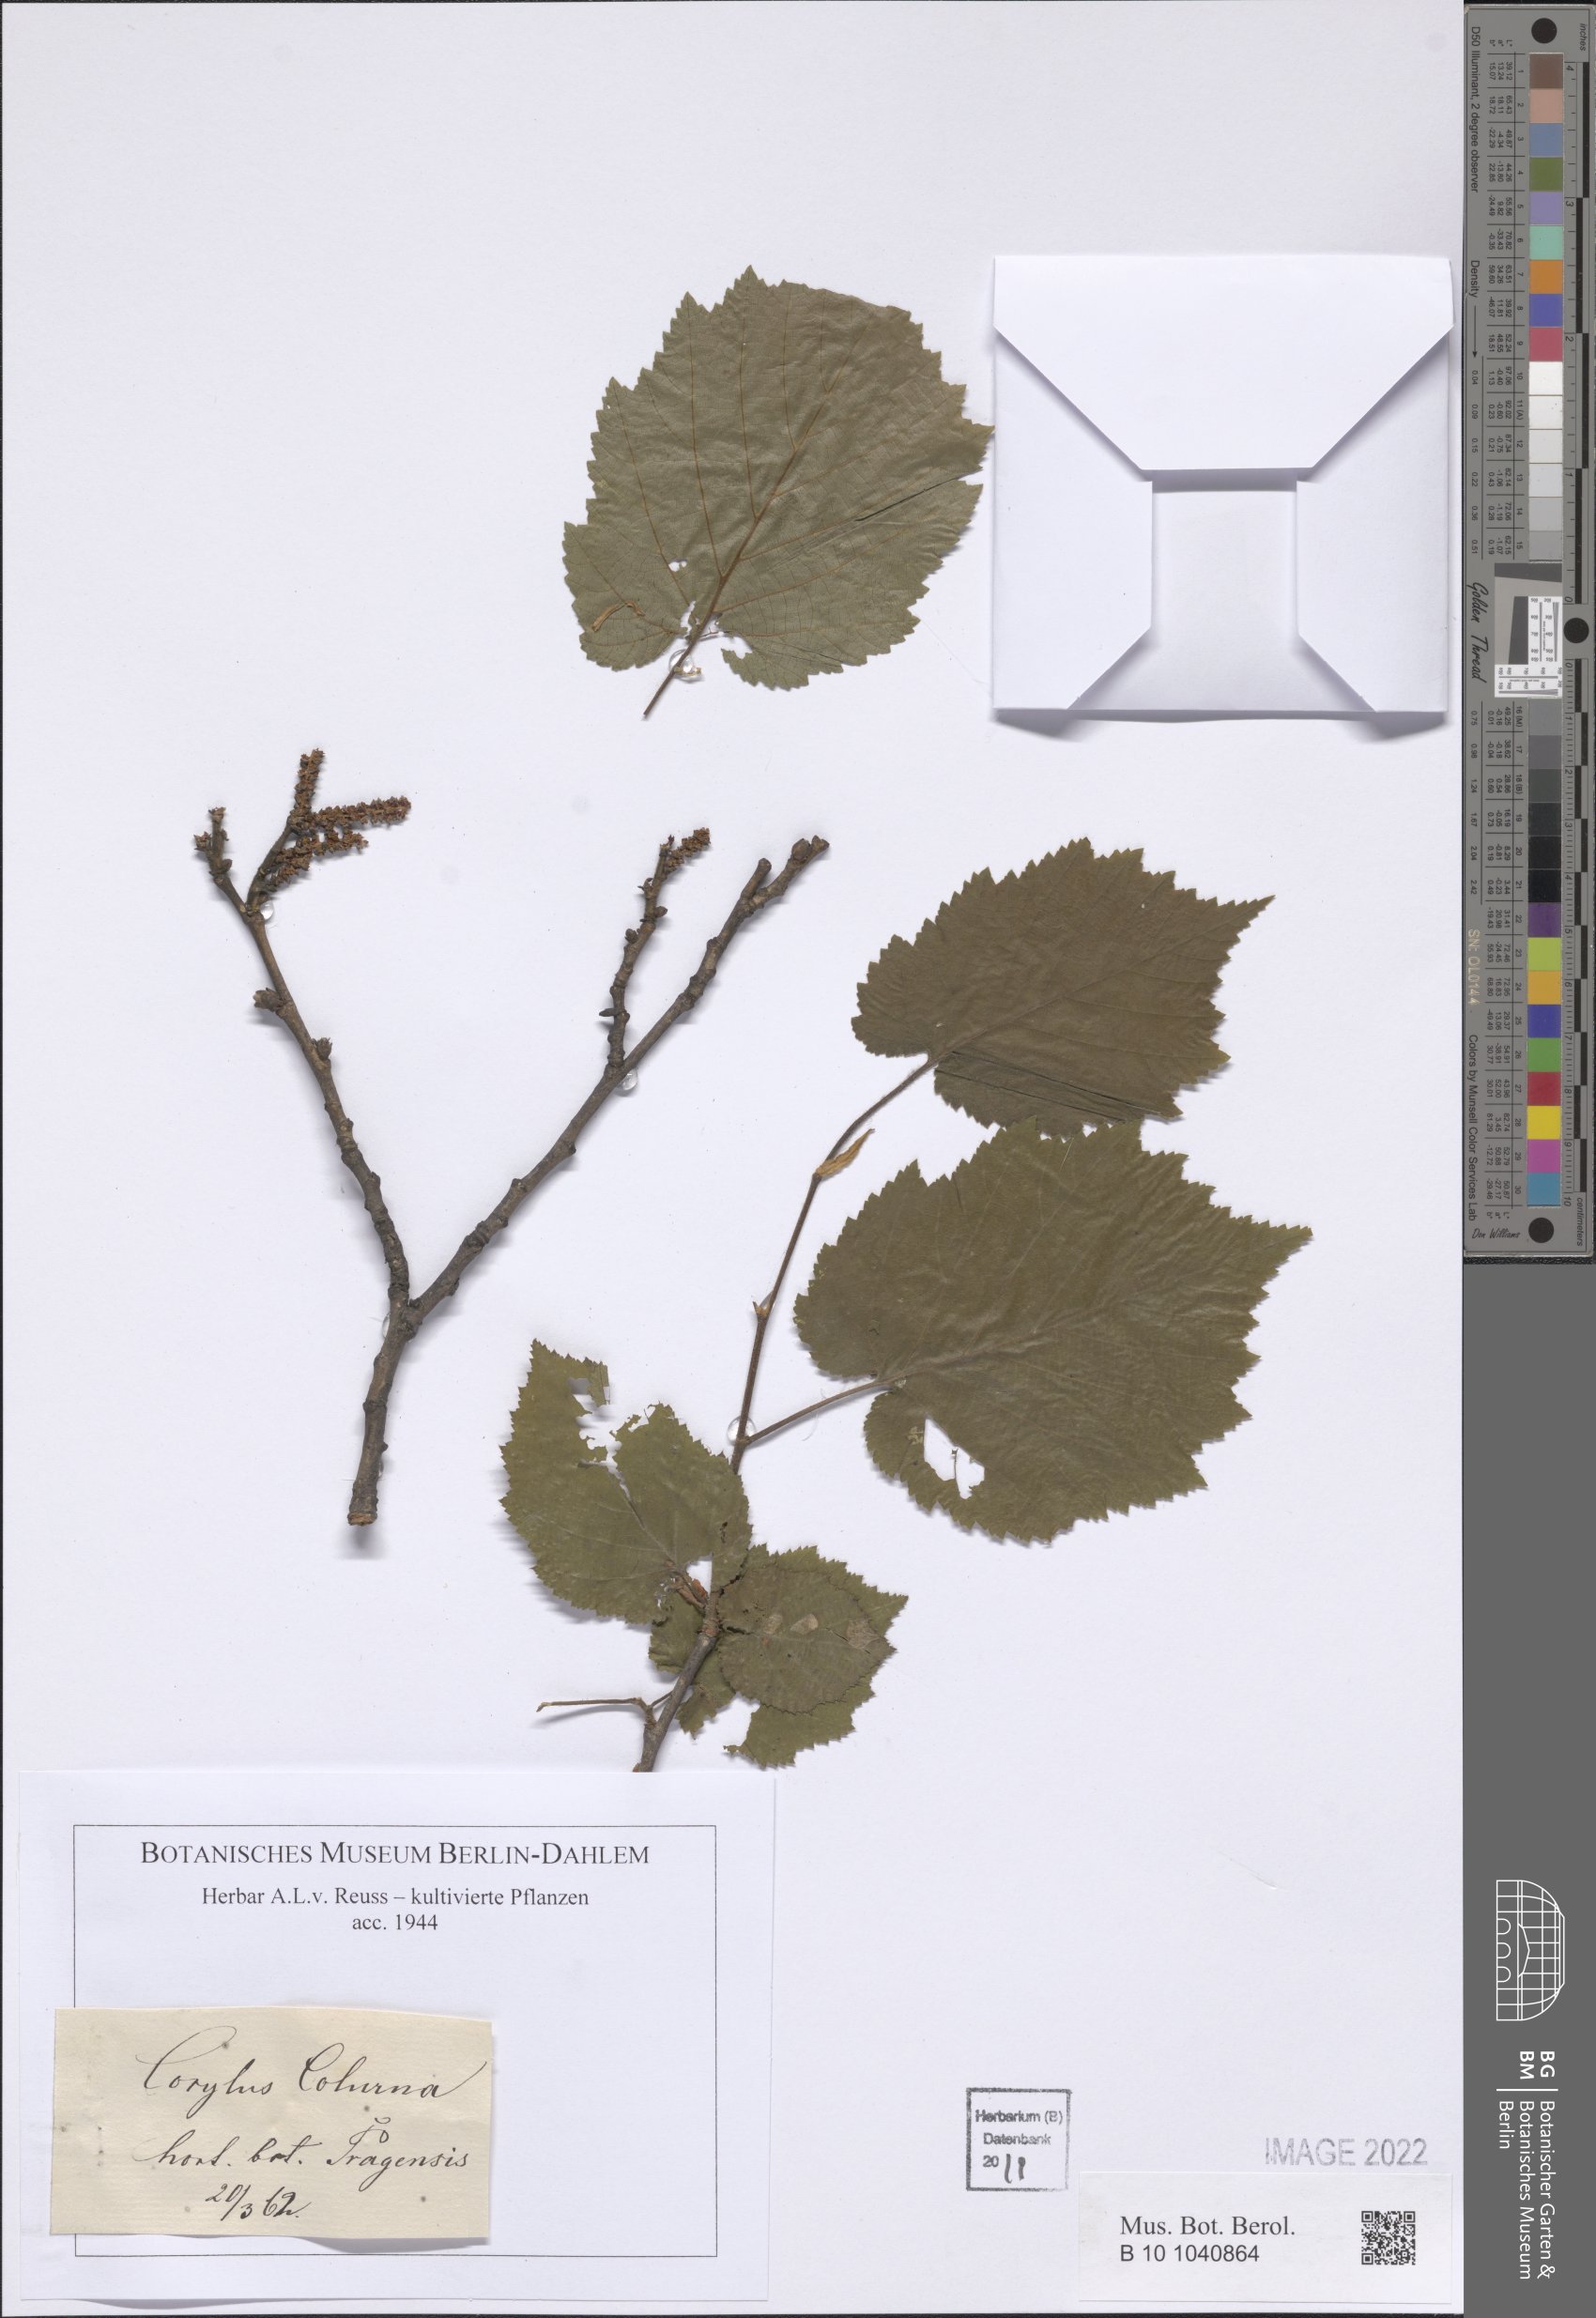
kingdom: Plantae
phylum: Tracheophyta
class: Magnoliopsida
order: Fagales
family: Betulaceae
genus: Corylus
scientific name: Corylus colurna
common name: Turkish hazel
